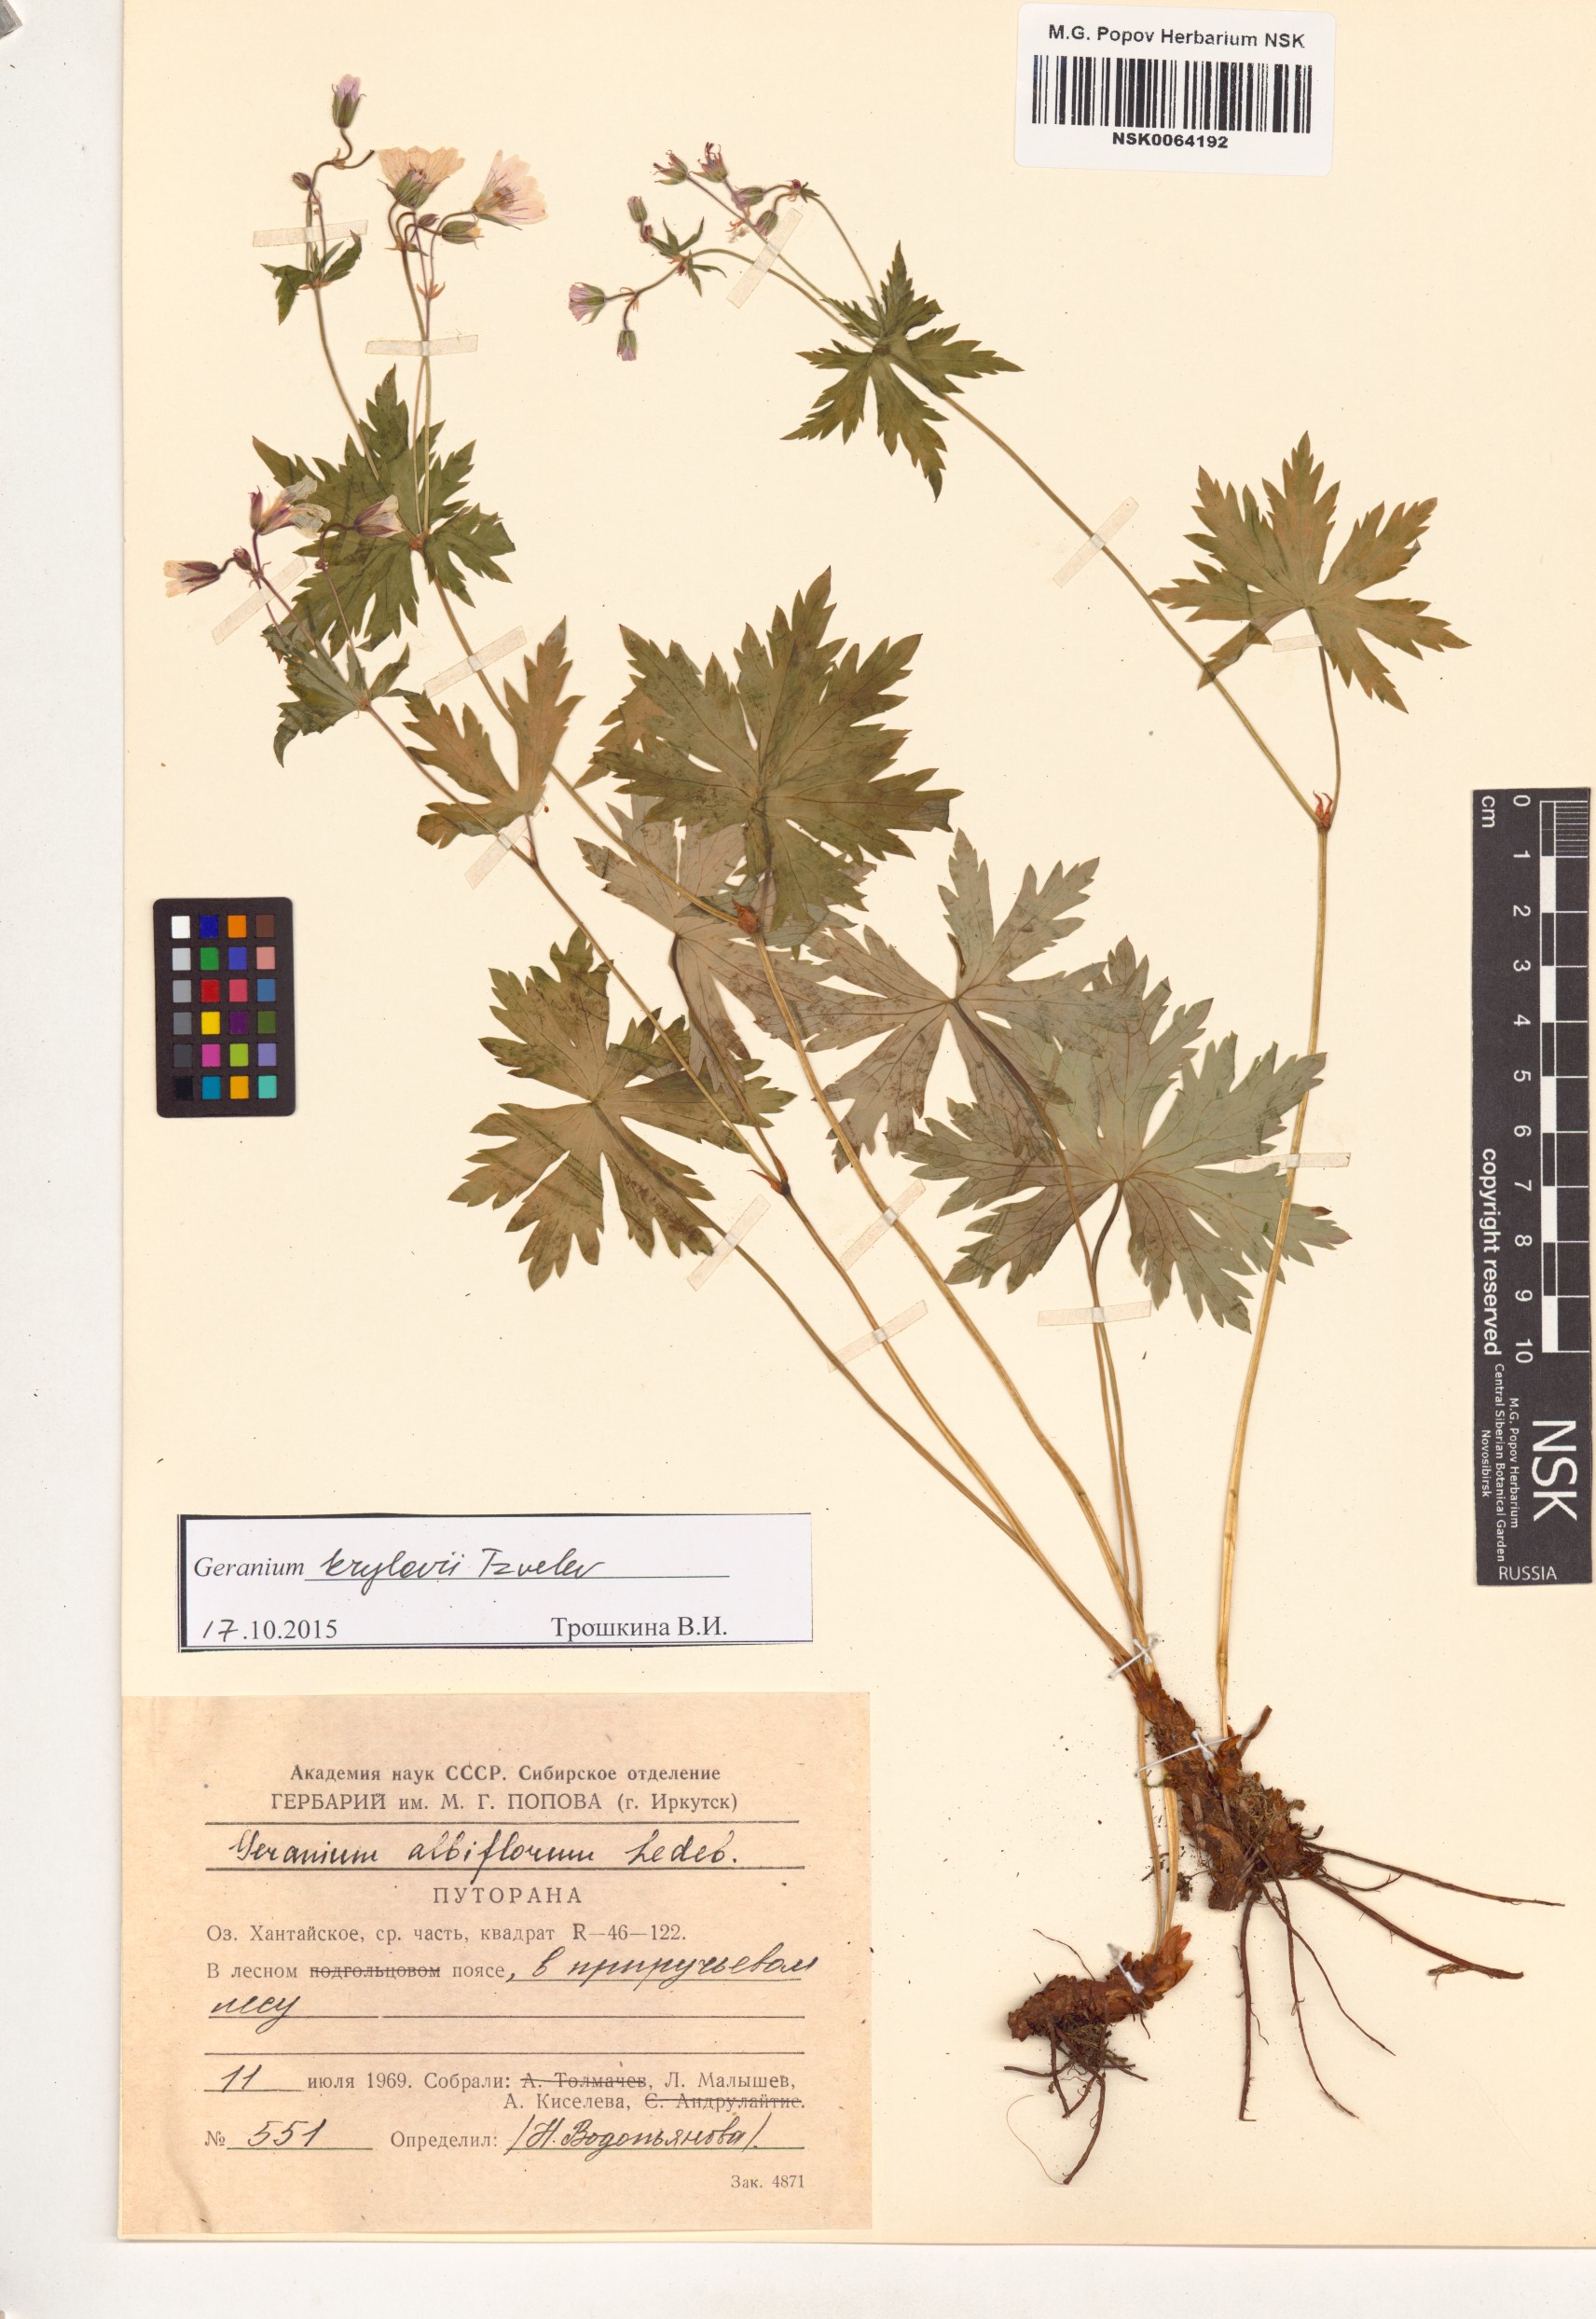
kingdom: Plantae
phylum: Tracheophyta
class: Magnoliopsida
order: Geraniales
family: Geraniaceae
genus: Geranium
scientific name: Geranium sylvaticum
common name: Wood crane's-bill
